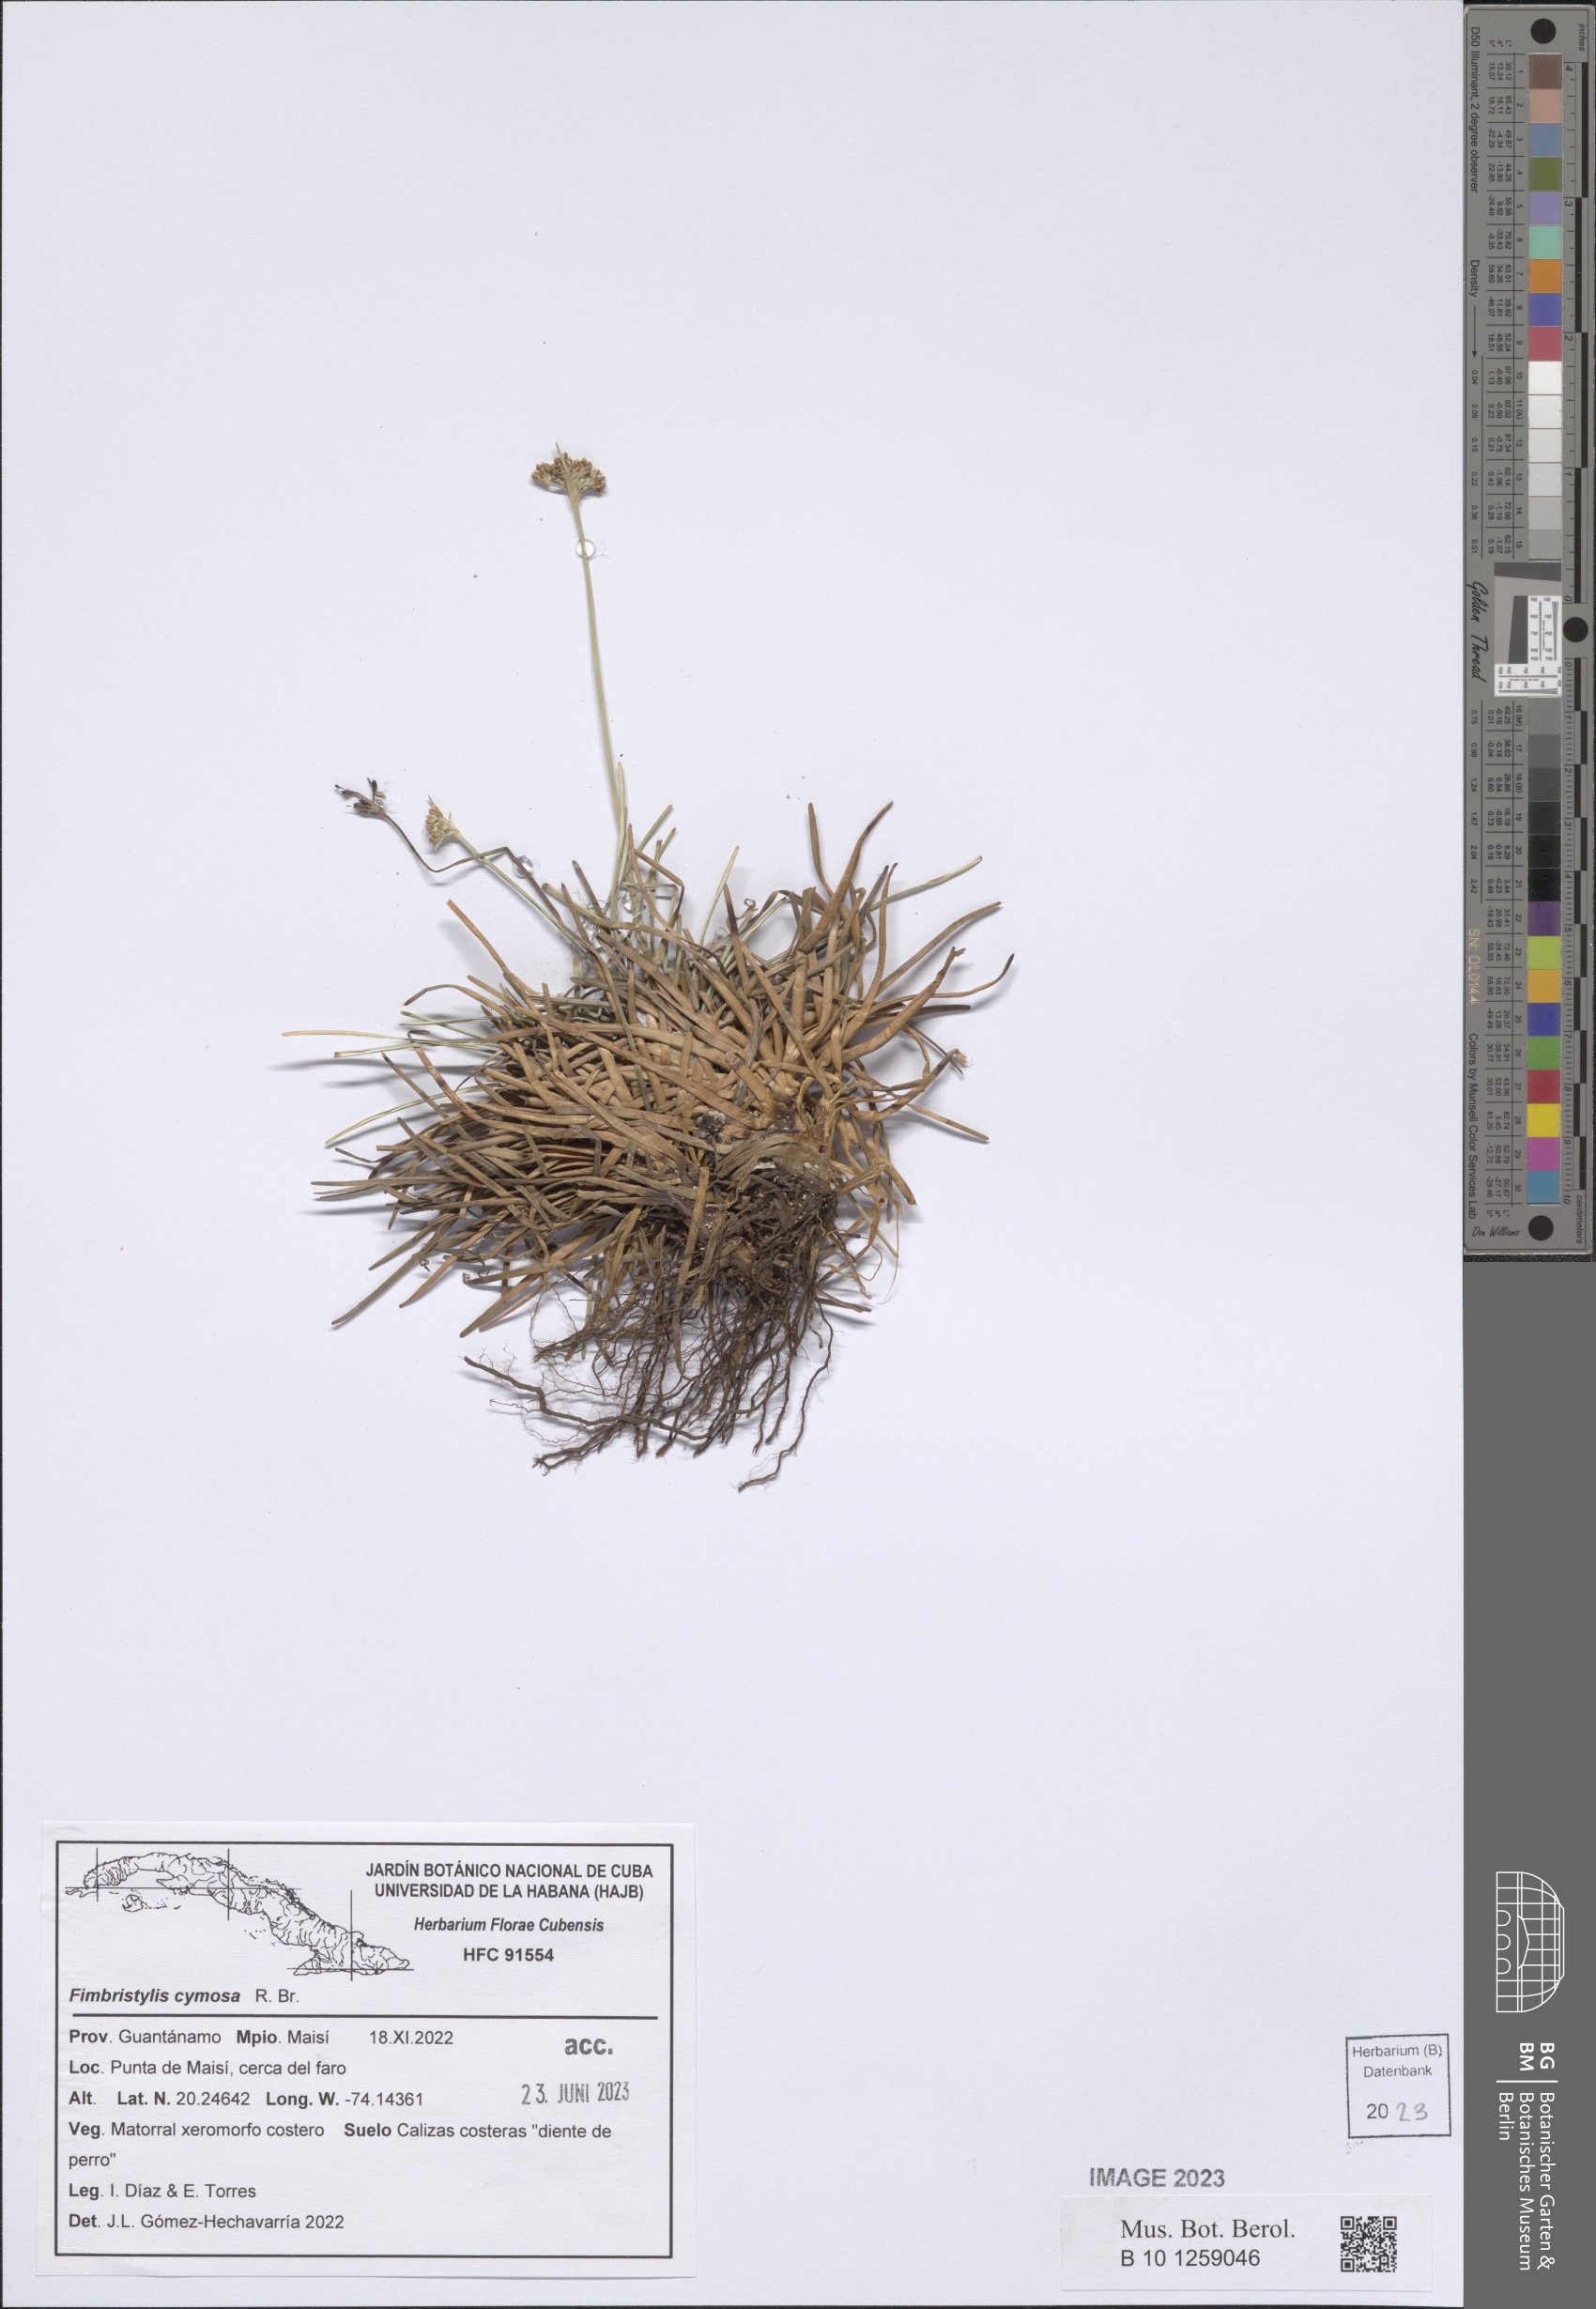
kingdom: Plantae
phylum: Tracheophyta
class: Liliopsida
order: Poales
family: Cyperaceae
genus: Fimbristylis
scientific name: Fimbristylis cymosa
